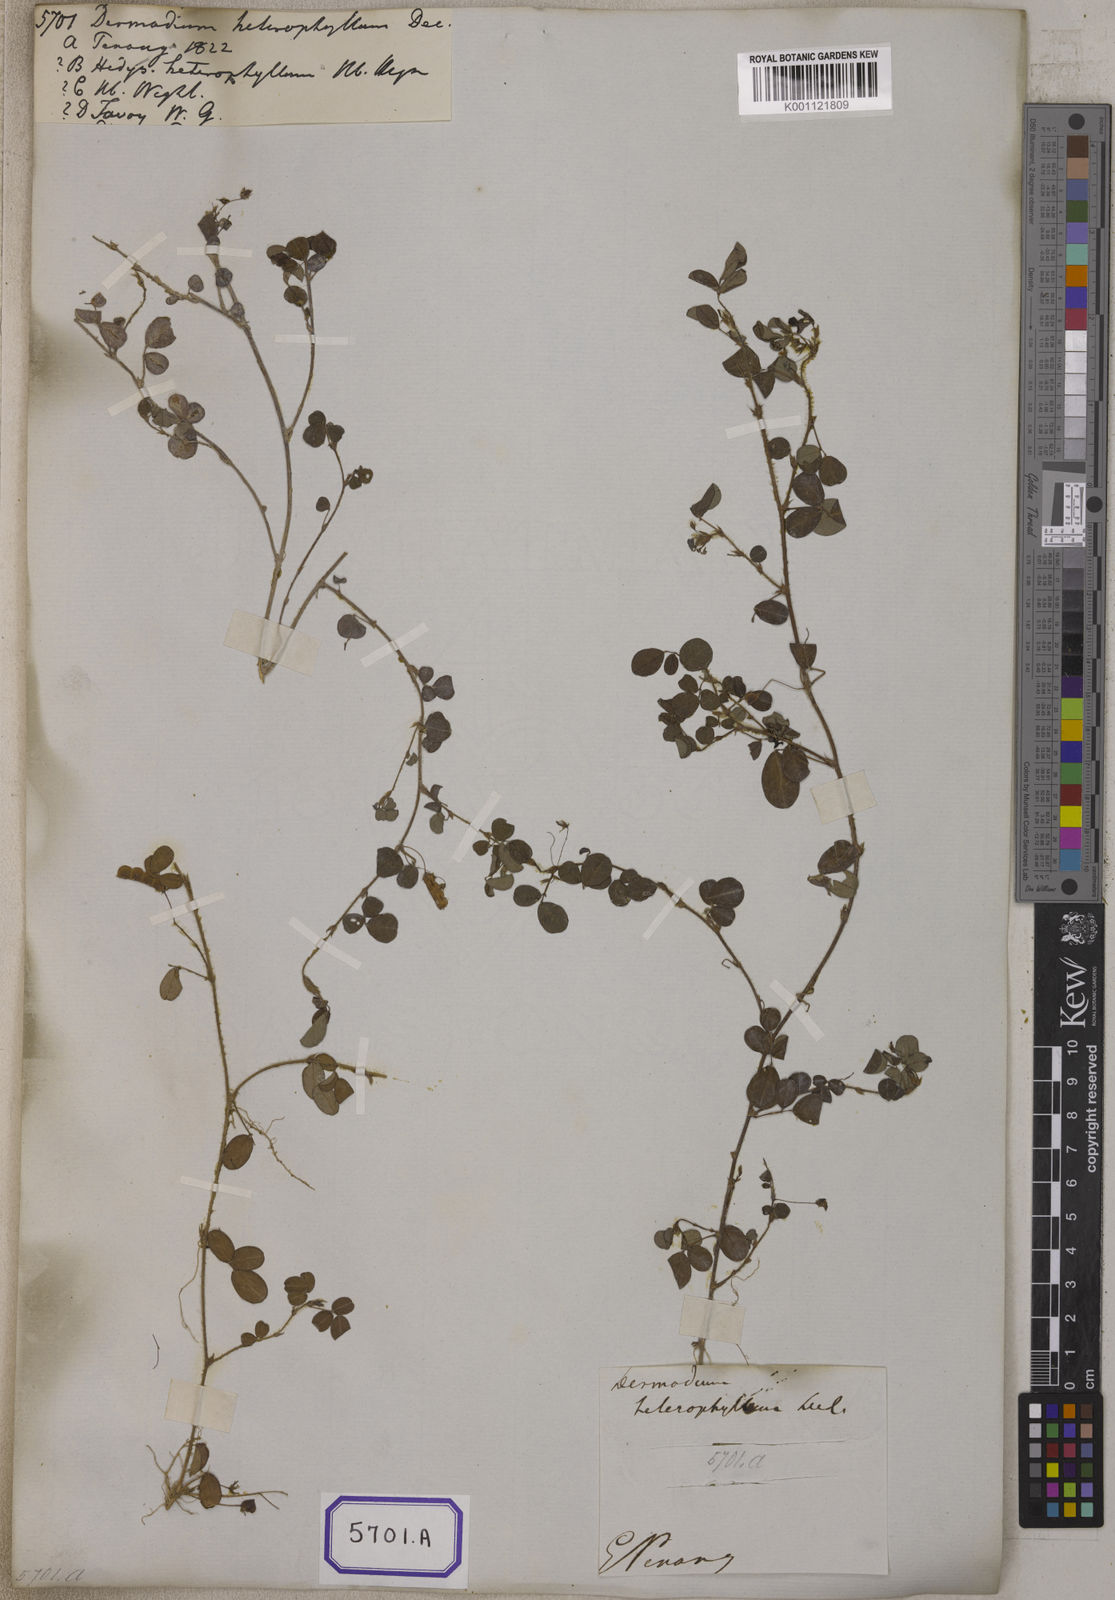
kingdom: Plantae
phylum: Tracheophyta
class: Magnoliopsida
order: Fabales
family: Fabaceae
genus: Desmodium
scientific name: Desmodium
